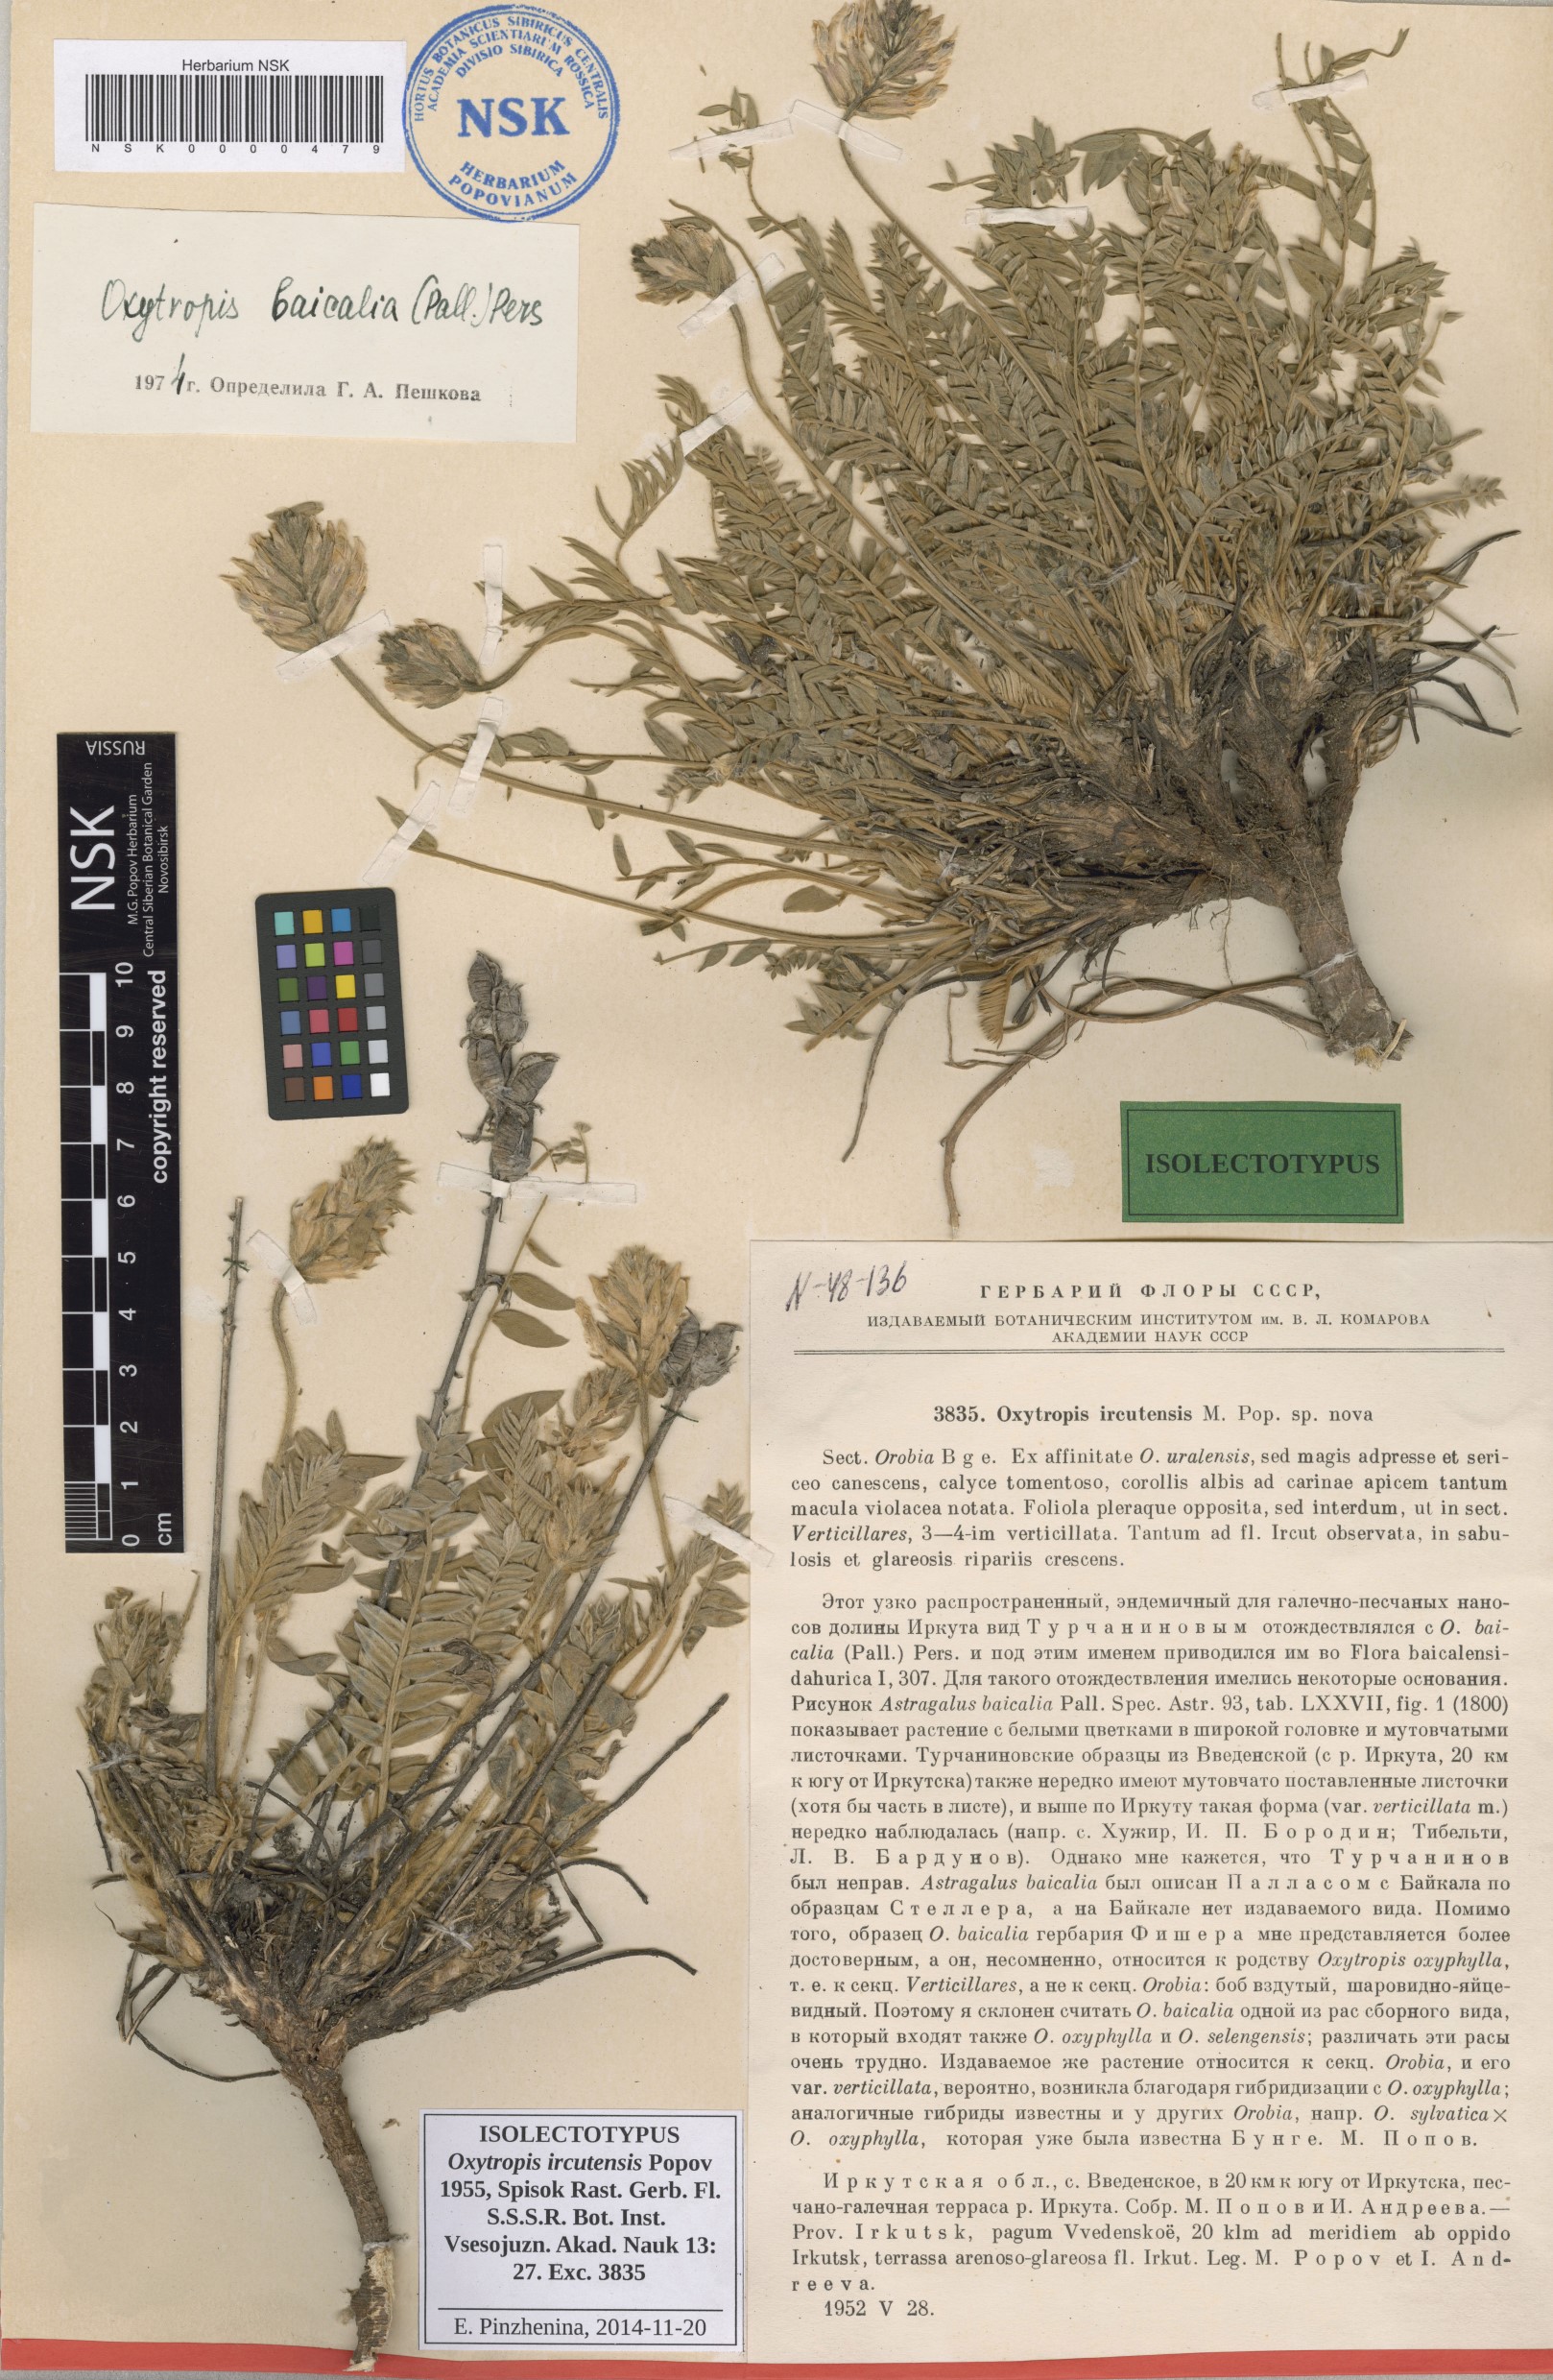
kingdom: Plantae
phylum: Tracheophyta
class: Magnoliopsida
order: Fabales
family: Fabaceae
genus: Oxytropis
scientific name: Oxytropis baicalia
